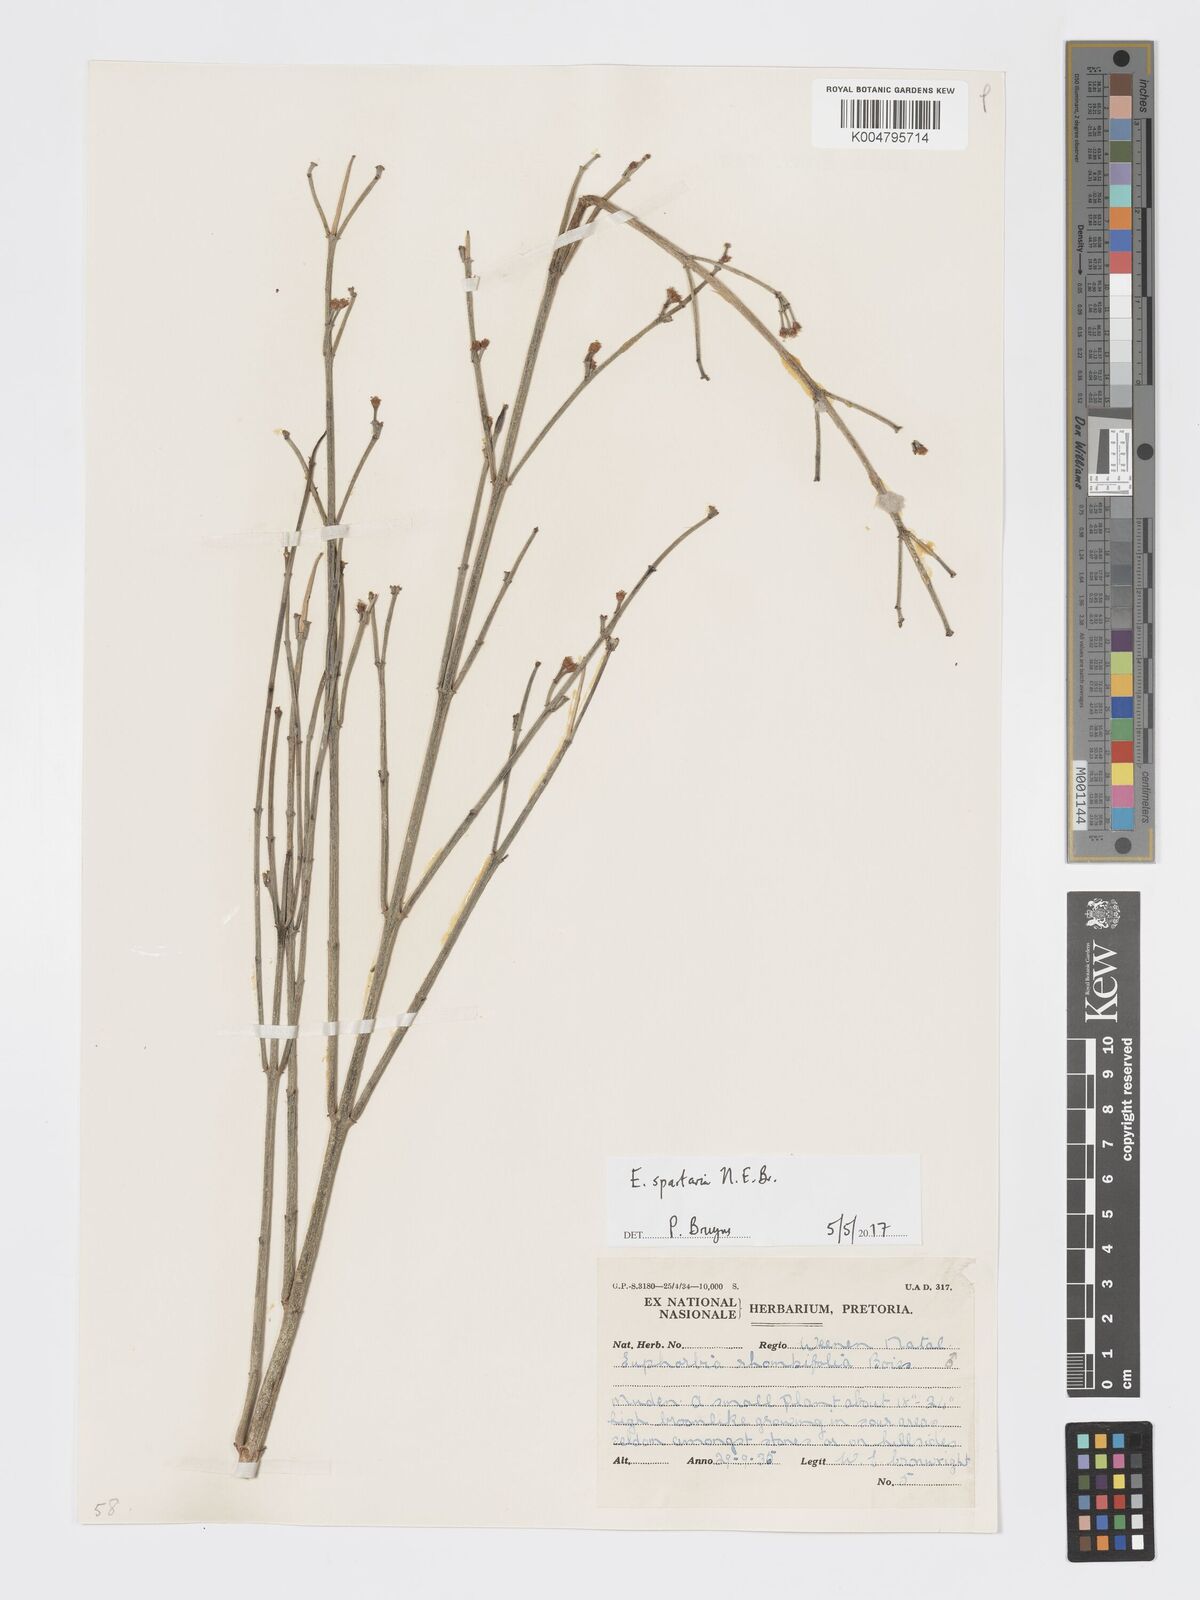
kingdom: Plantae
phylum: Tracheophyta
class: Magnoliopsida
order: Malpighiales
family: Euphorbiaceae
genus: Euphorbia
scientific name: Euphorbia spartaria
